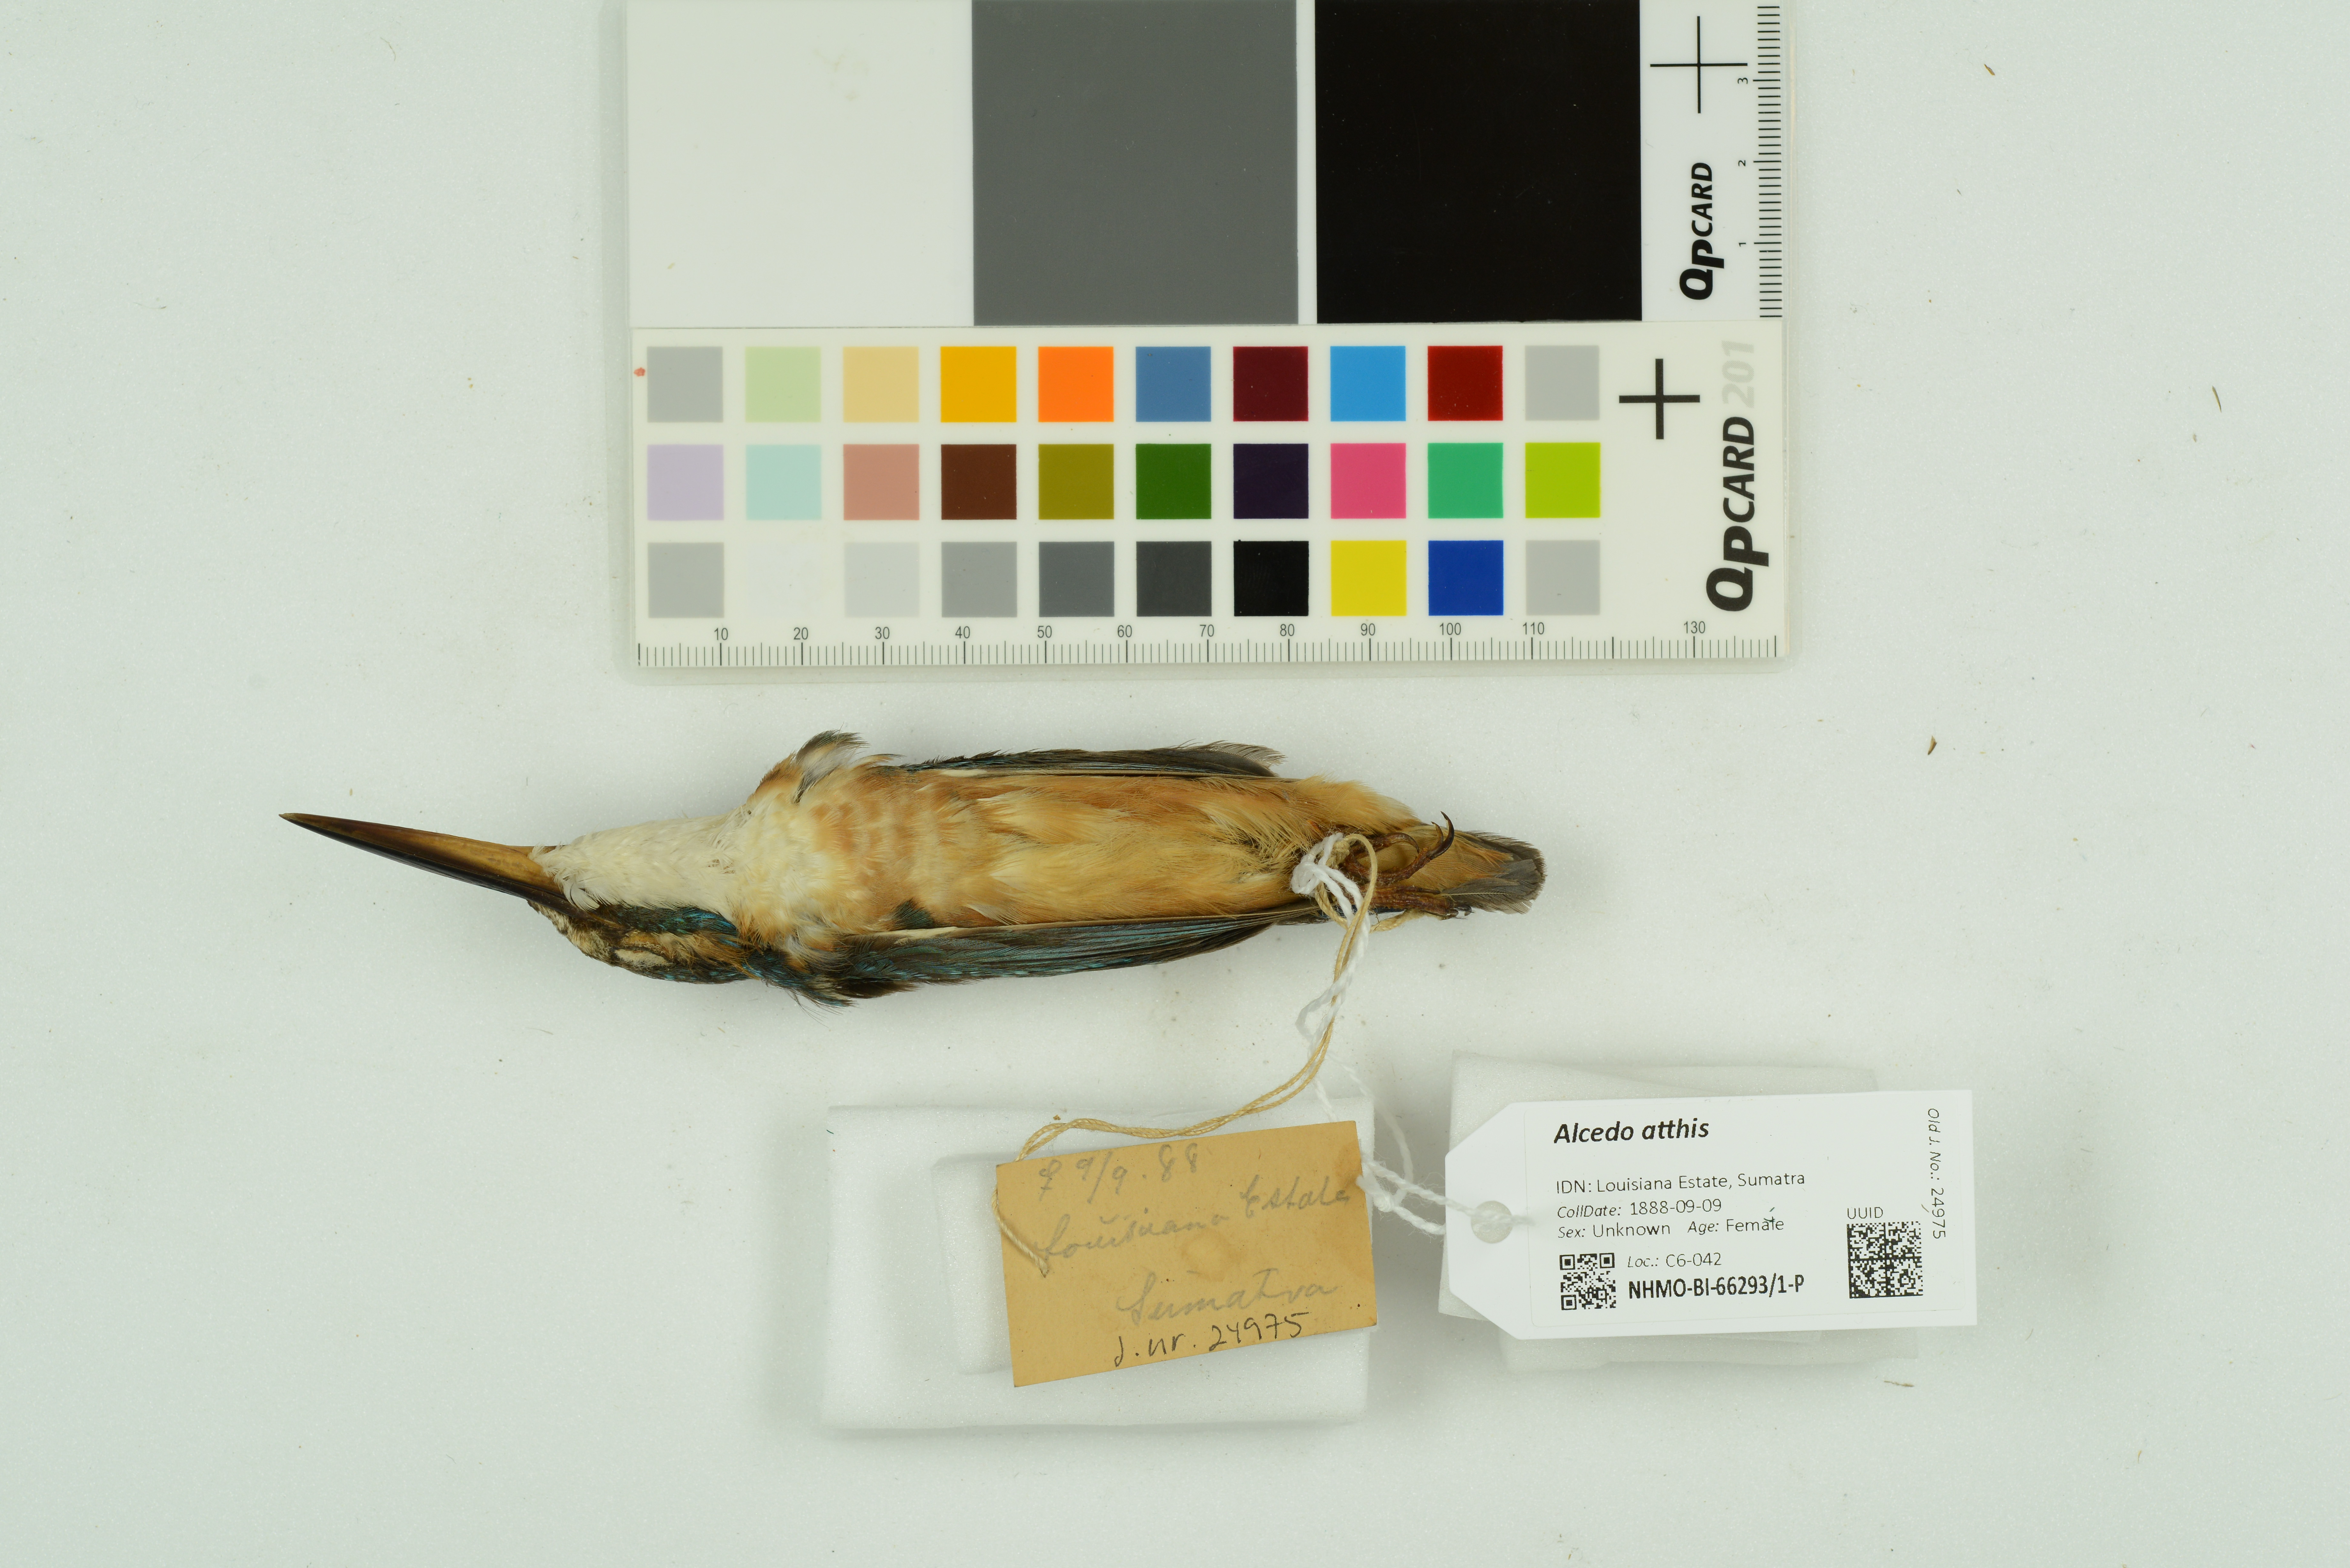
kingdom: Animalia
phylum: Chordata
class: Aves
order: Coraciiformes
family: Alcedinidae
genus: Alcedo
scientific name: Alcedo atthis
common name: Common kingfisher
